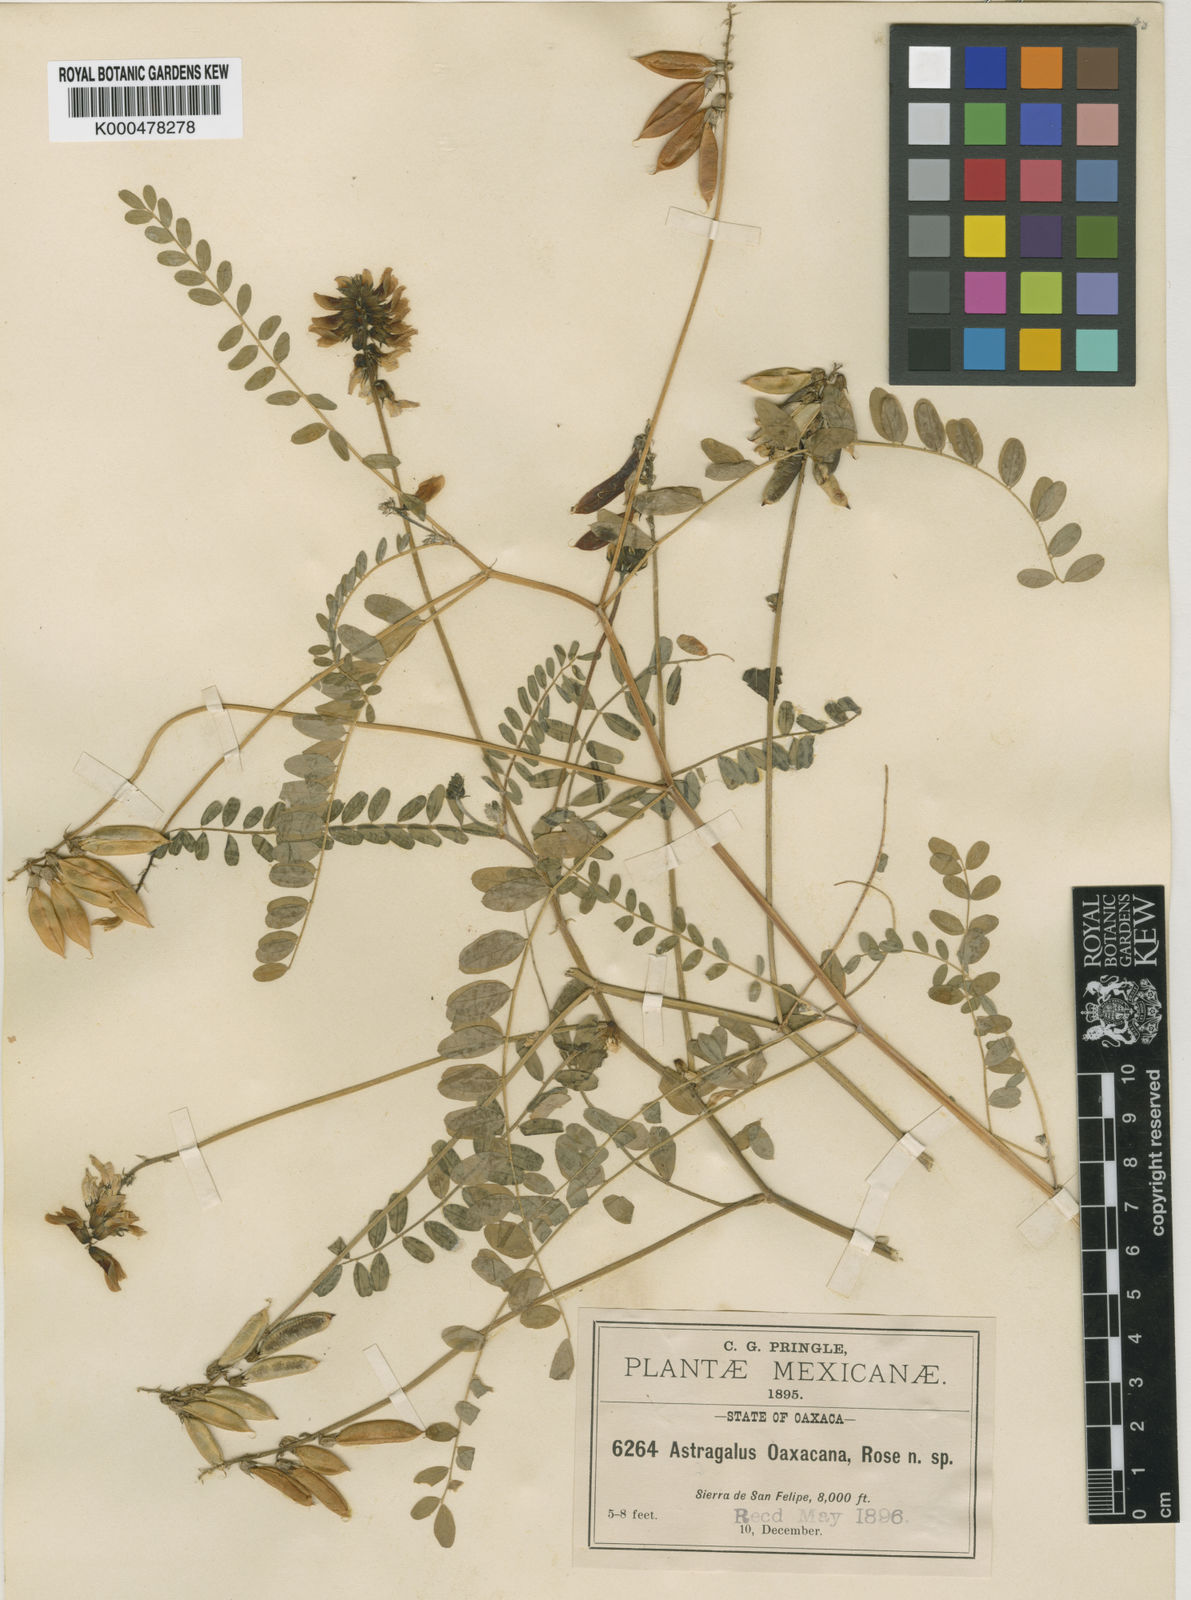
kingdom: Plantae
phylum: Tracheophyta
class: Magnoliopsida
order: Fabales
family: Fabaceae
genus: Astragalus
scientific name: Astragalus mollissimus
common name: Woolly locoweed
